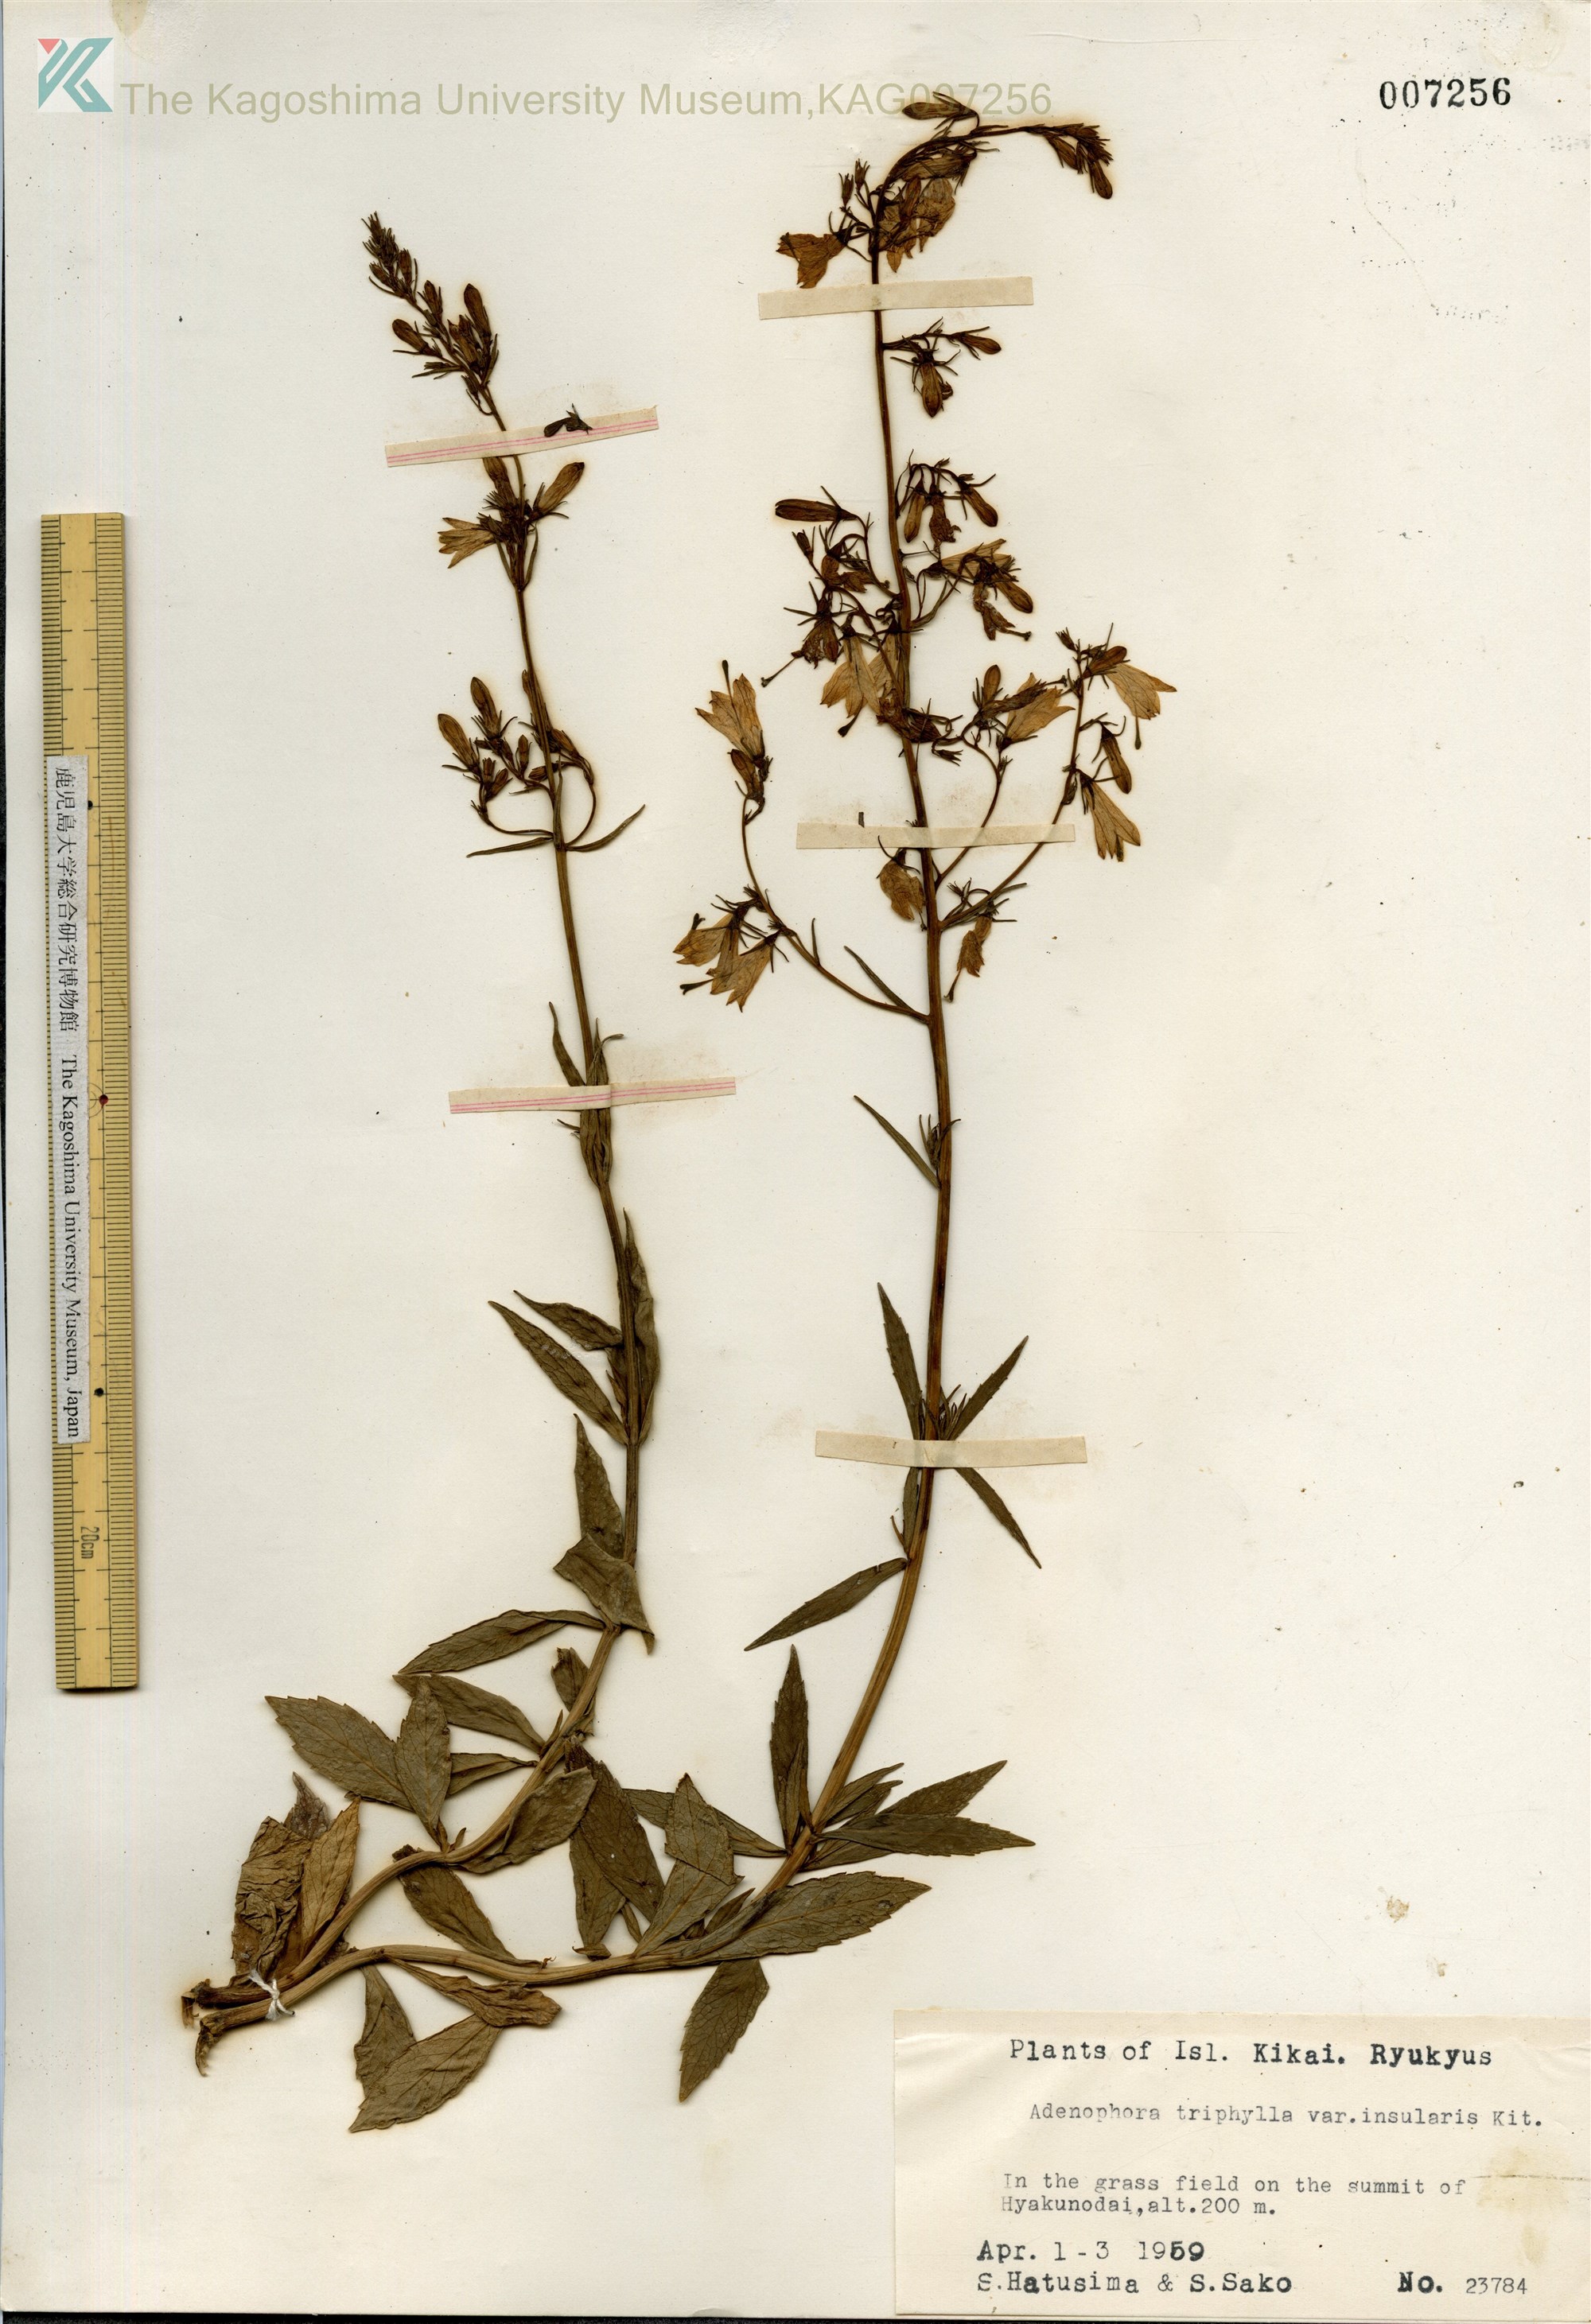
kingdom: Plantae
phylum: Tracheophyta
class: Magnoliopsida
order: Asterales
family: Campanulaceae
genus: Adenophora
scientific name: Adenophora tashiroi
